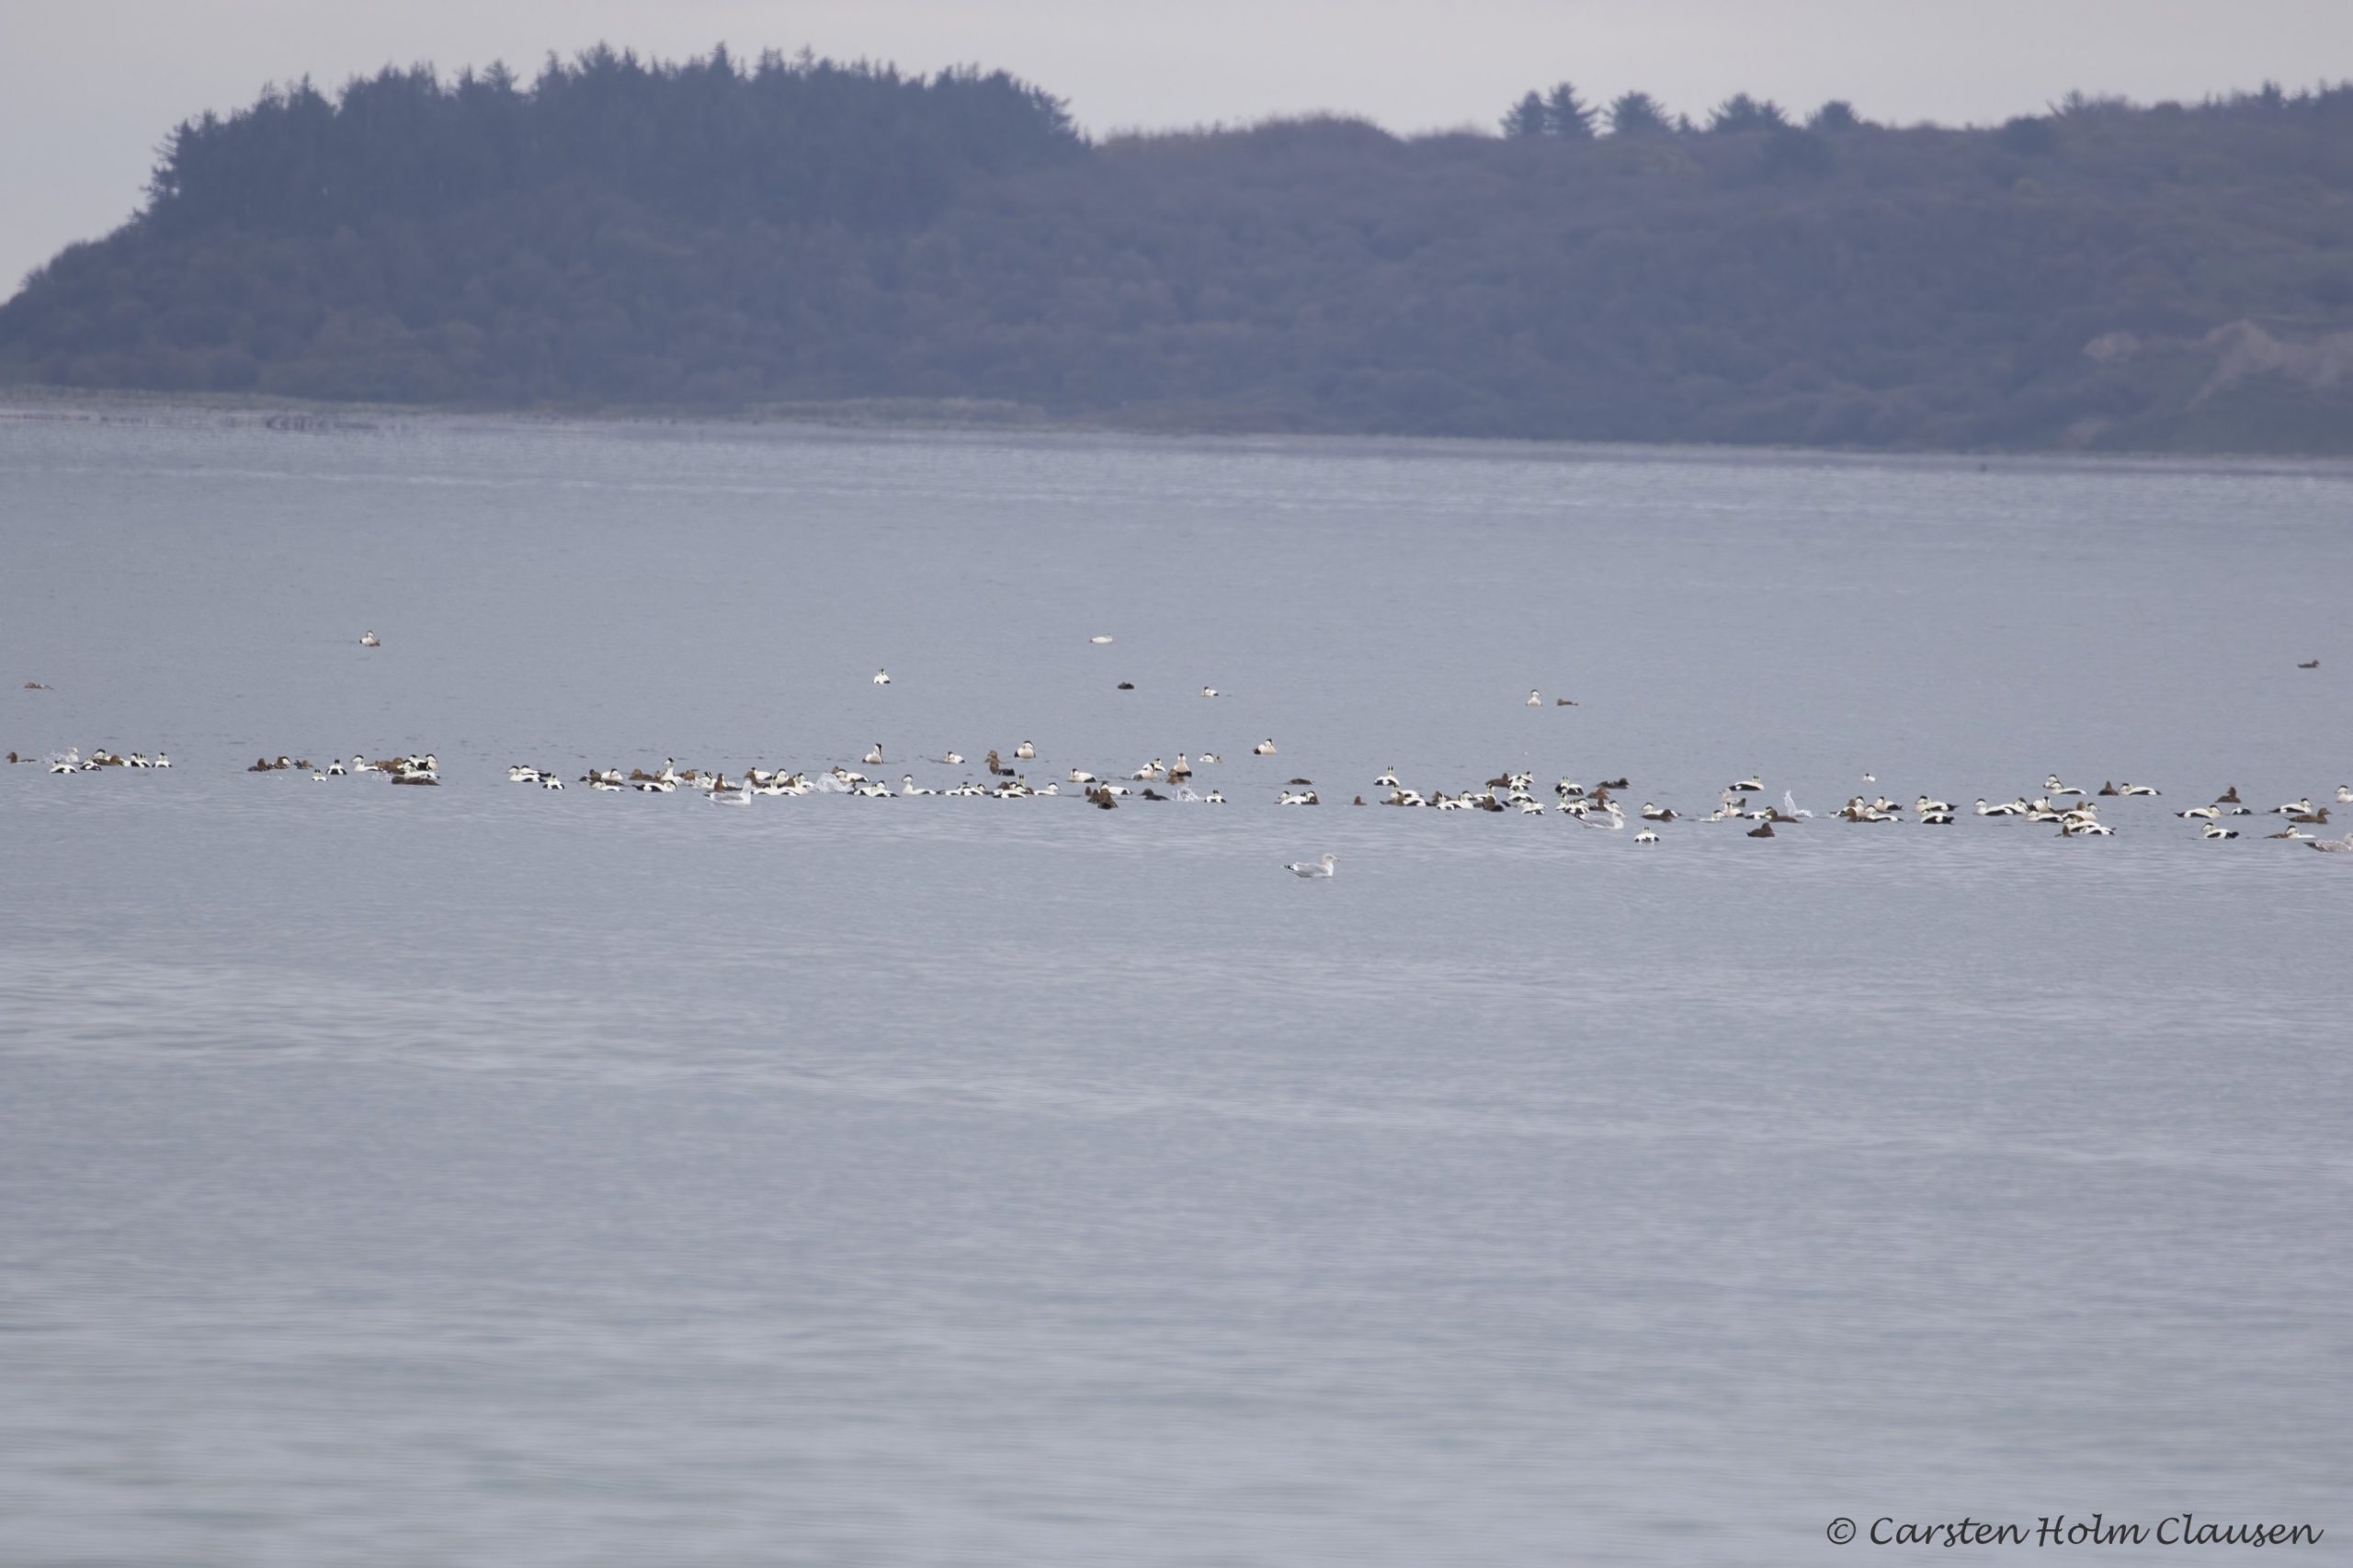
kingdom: Animalia
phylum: Chordata
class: Aves
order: Anseriformes
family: Anatidae
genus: Somateria
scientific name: Somateria mollissima
